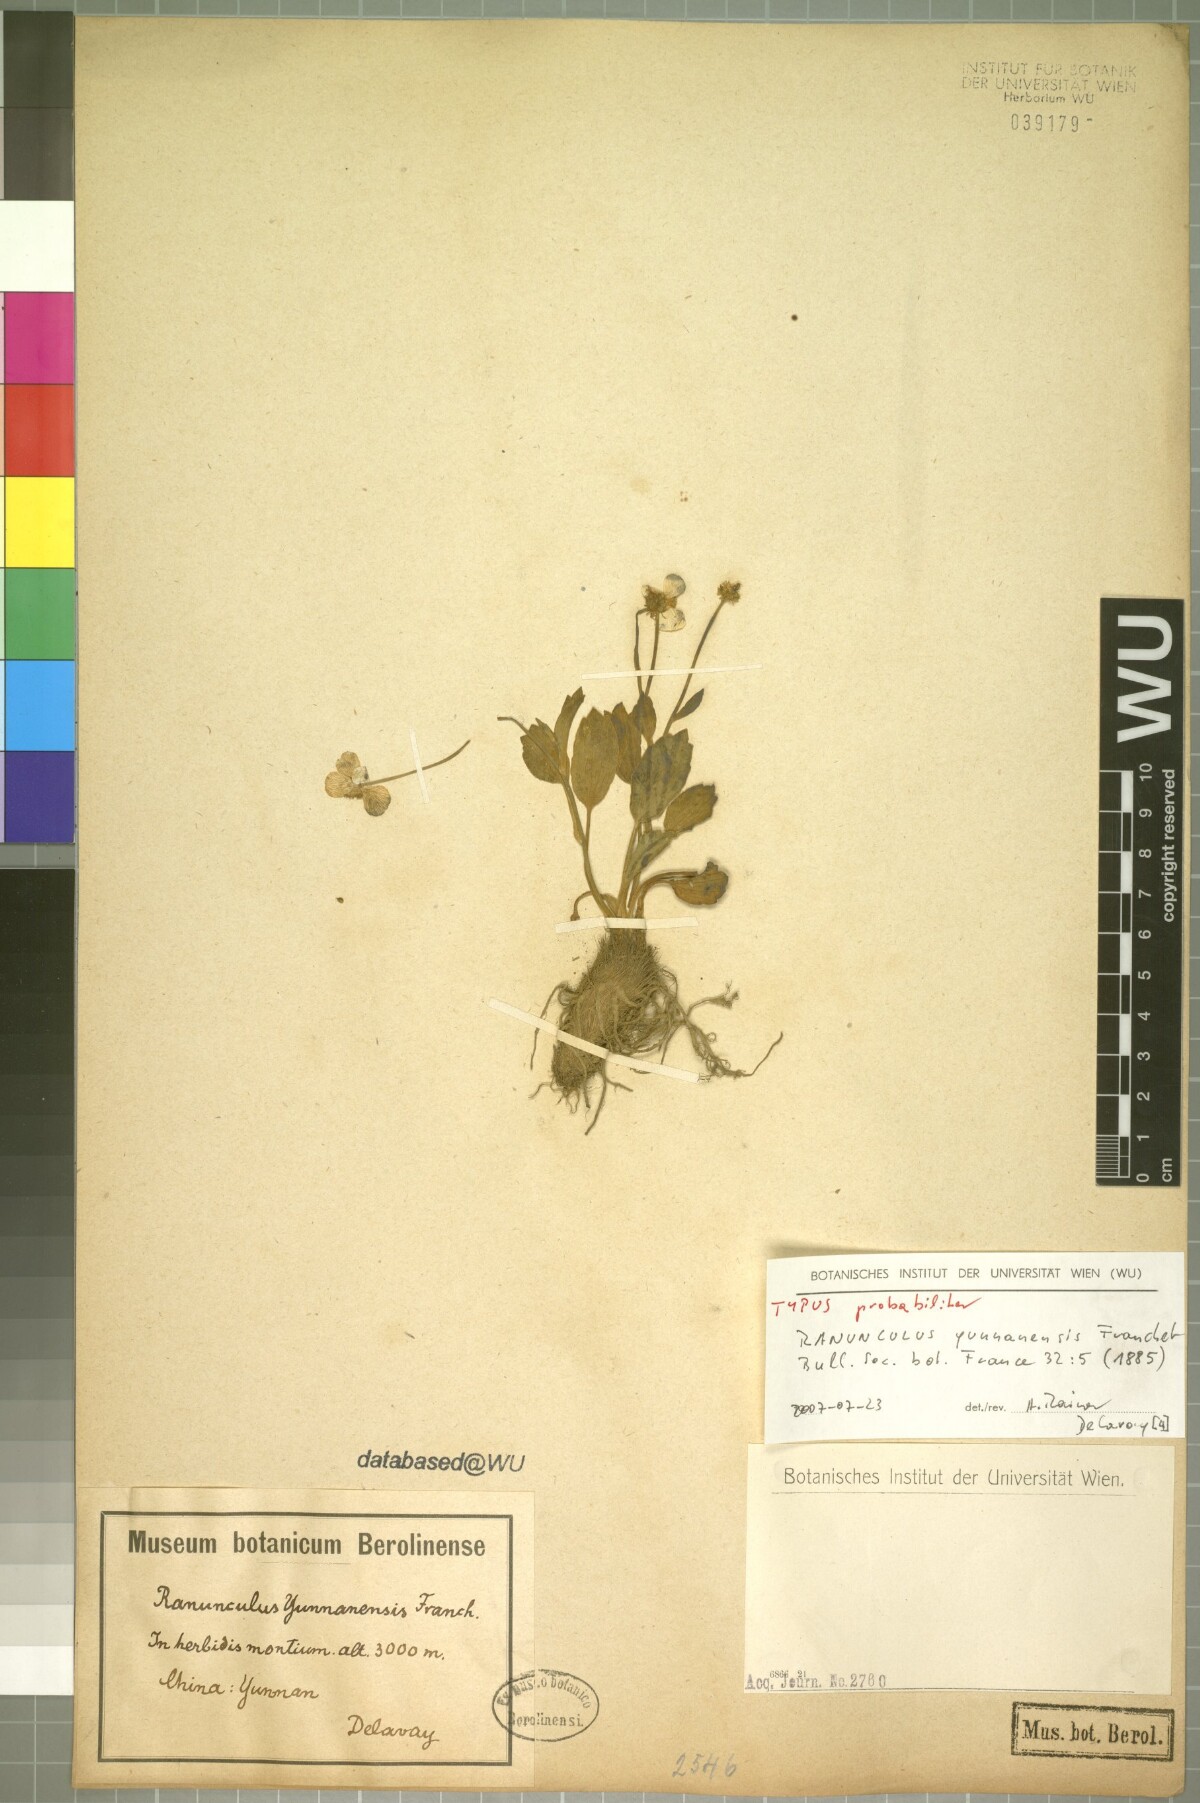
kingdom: Plantae
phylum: Tracheophyta
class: Magnoliopsida
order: Ranunculales
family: Ranunculaceae
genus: Ranunculus
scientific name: Ranunculus yunnanensis
